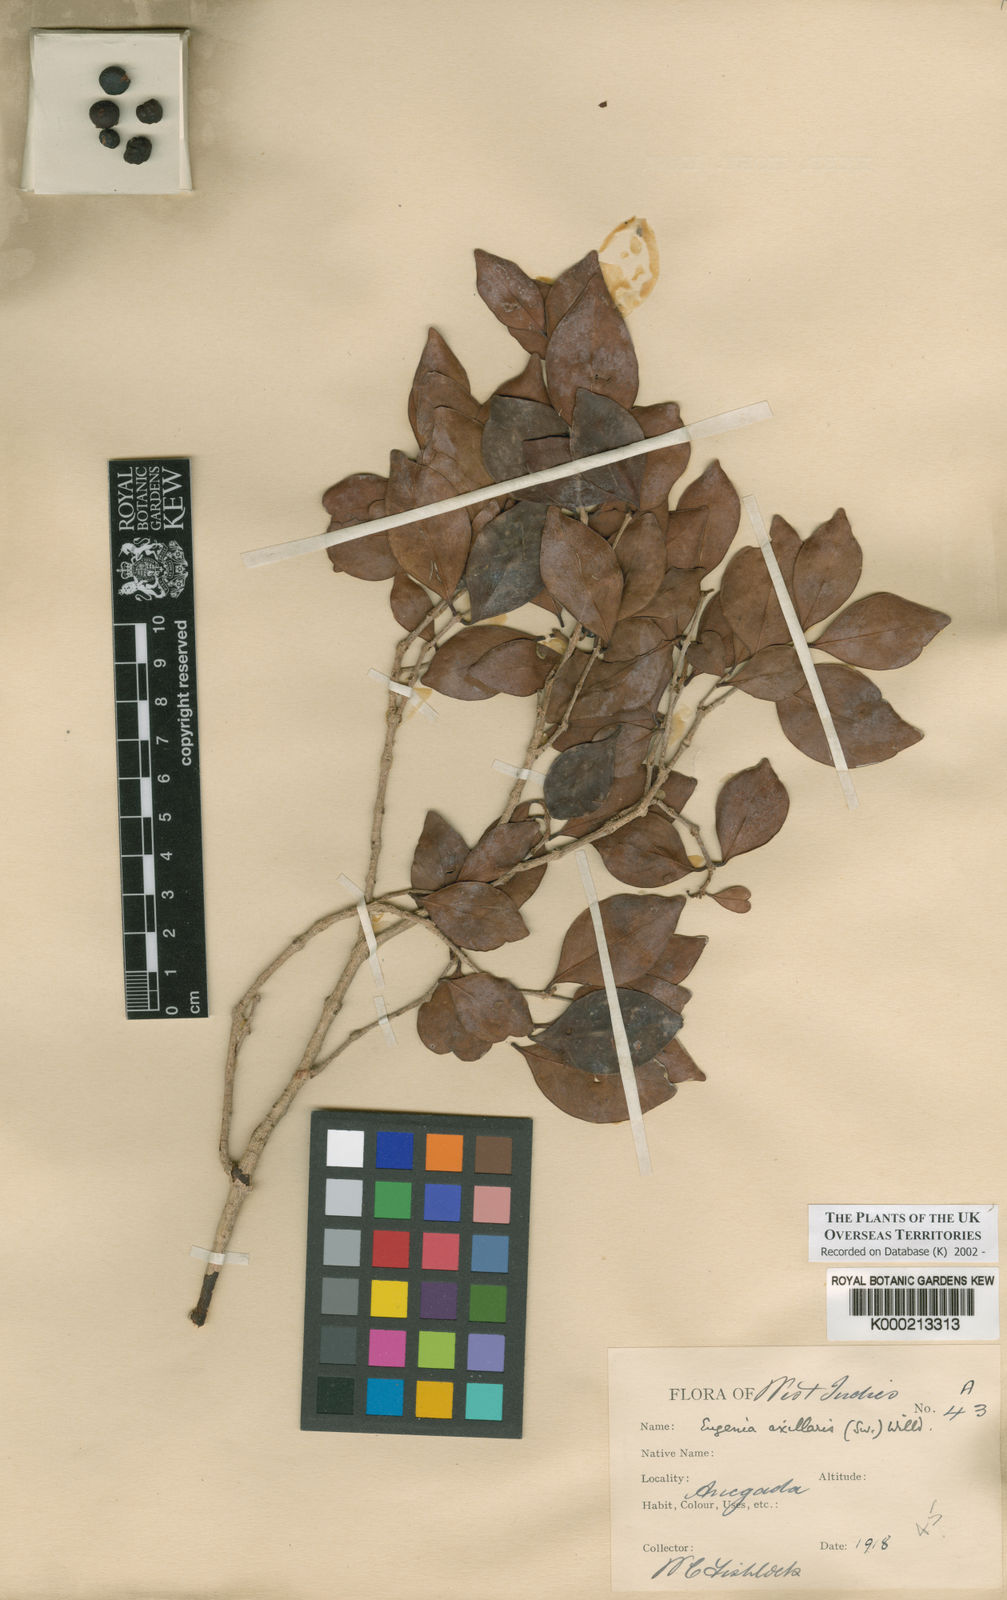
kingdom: Plantae
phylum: Tracheophyta
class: Magnoliopsida
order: Myrtales
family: Myrtaceae
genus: Eugenia
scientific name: Eugenia axillaris
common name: Choaky berry
